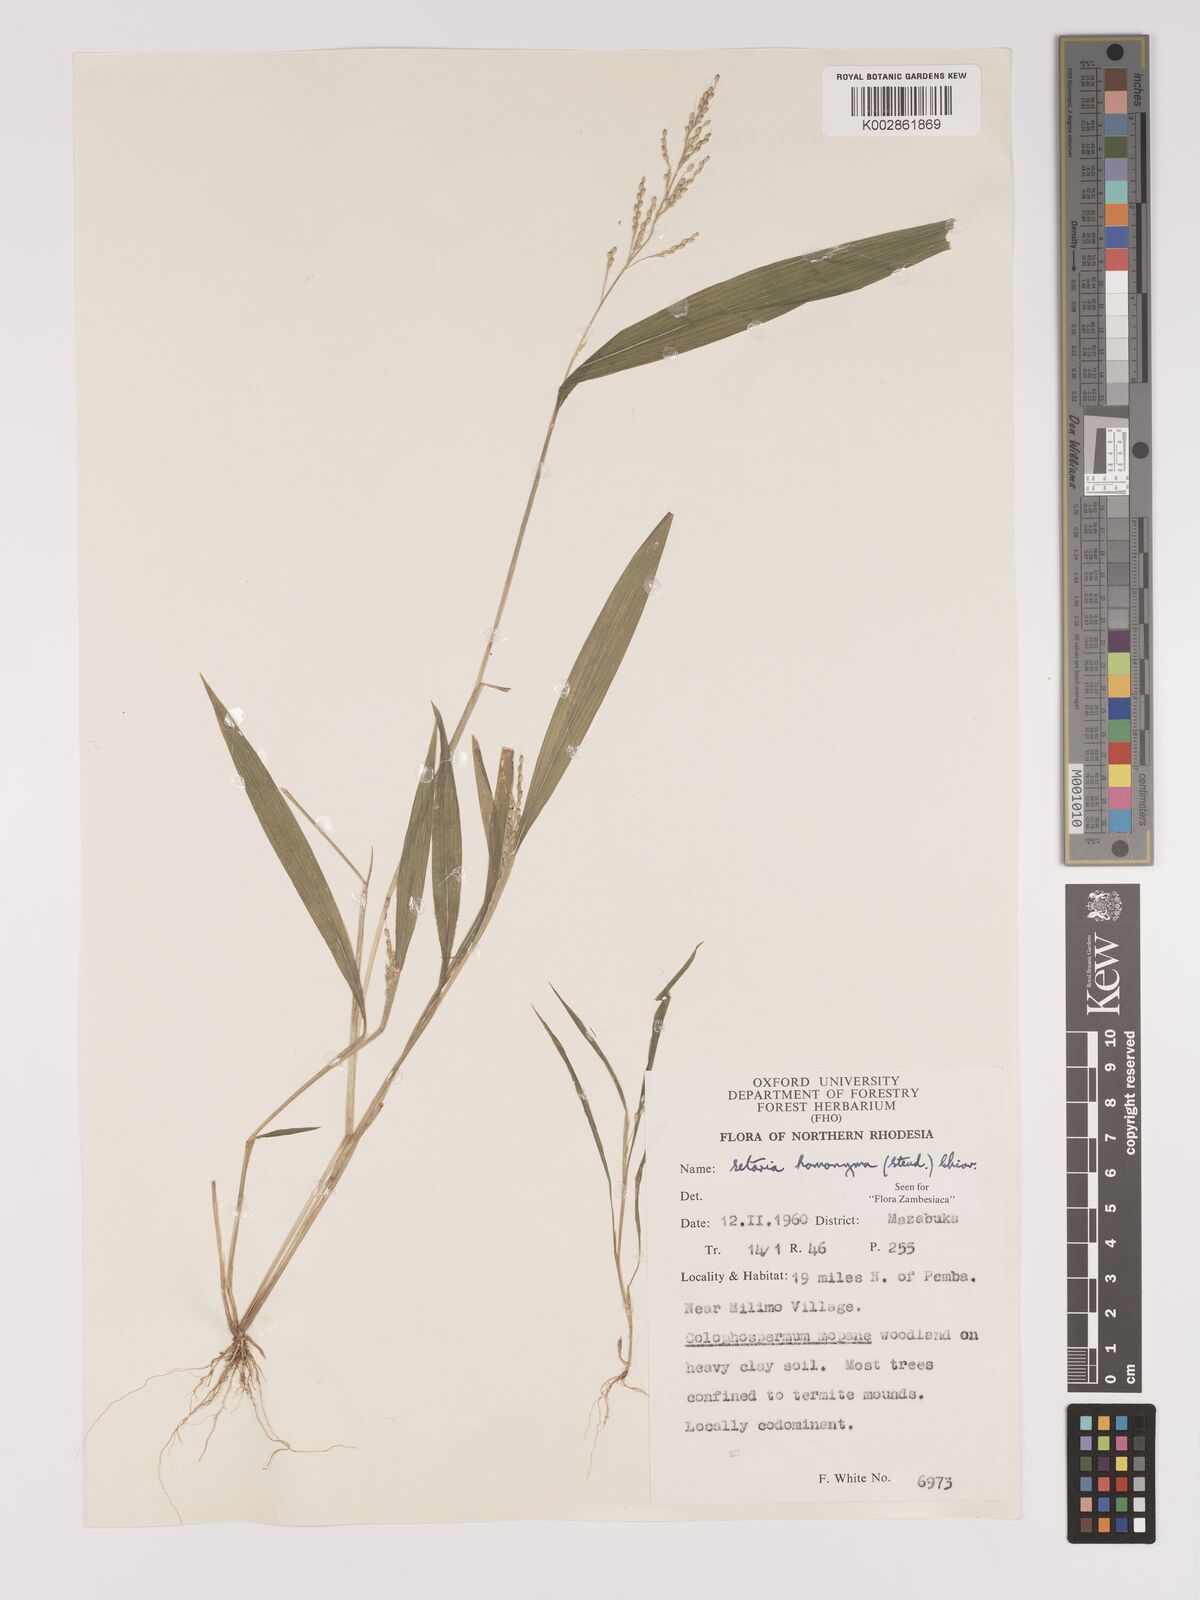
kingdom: Plantae
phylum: Tracheophyta
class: Liliopsida
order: Poales
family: Poaceae
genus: Setaria
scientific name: Setaria homonyma
